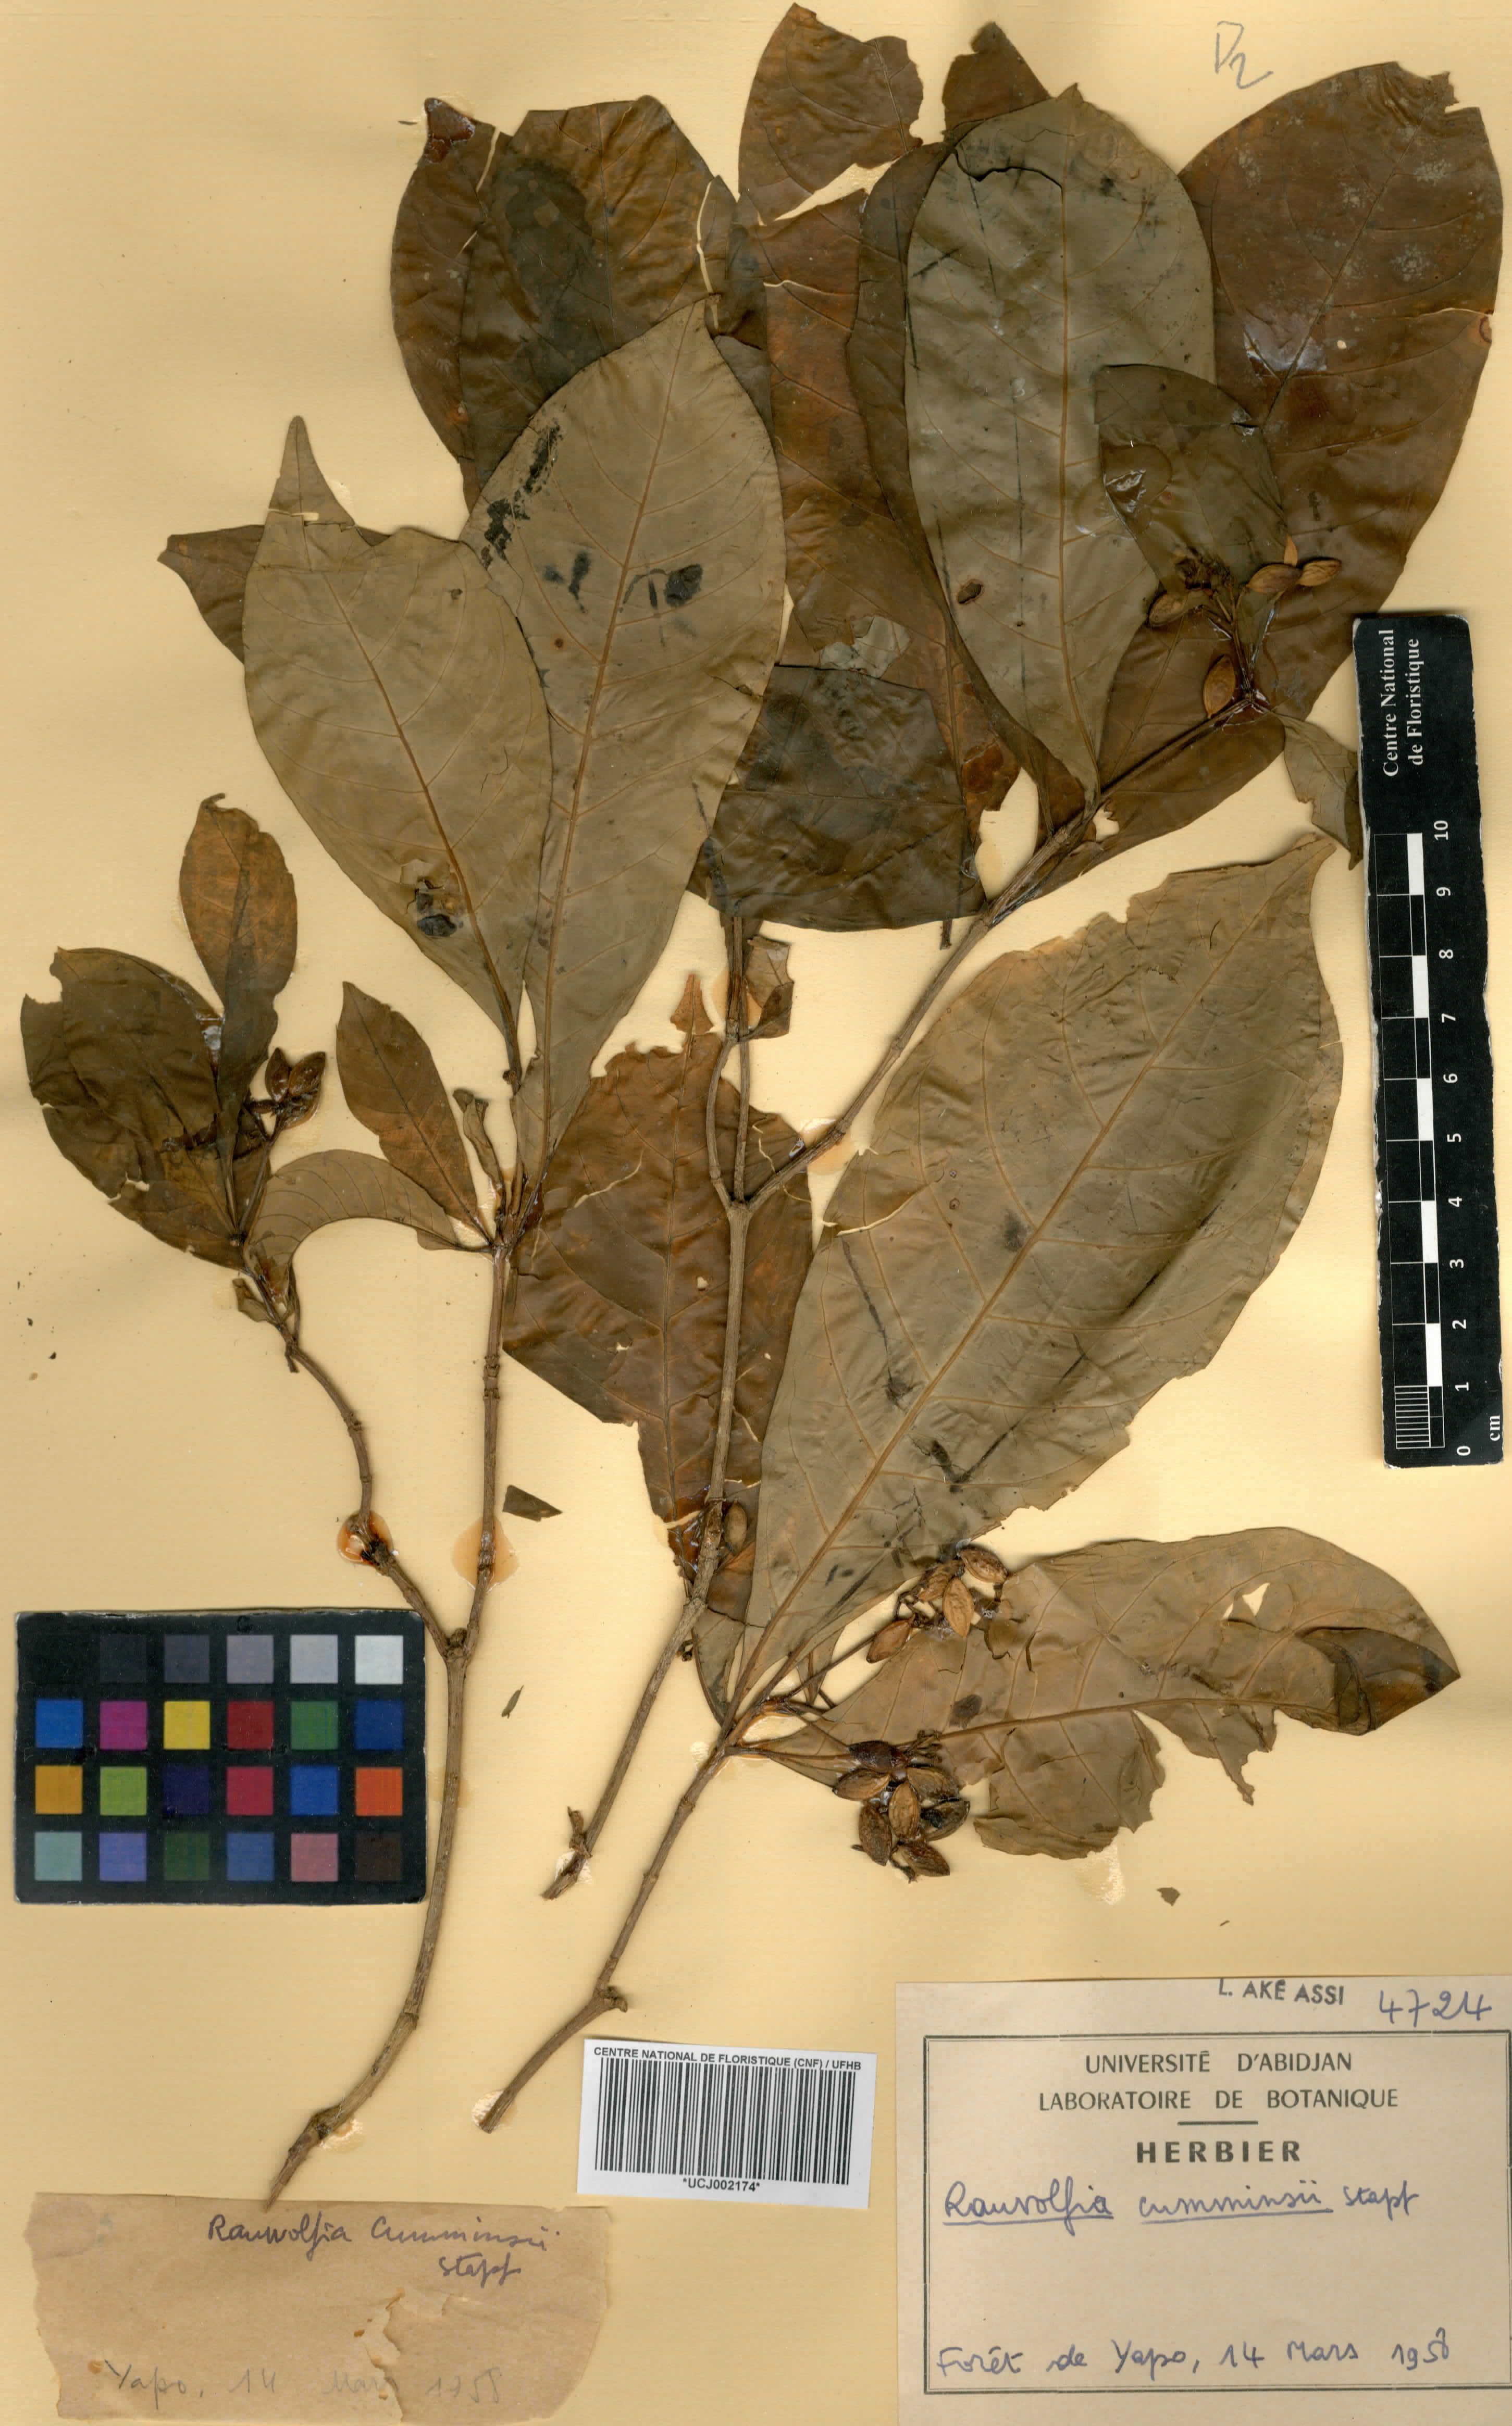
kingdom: Plantae
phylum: Tracheophyta
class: Magnoliopsida
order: Gentianales
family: Apocynaceae
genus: Rauvolfia
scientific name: Rauvolfia mannii
